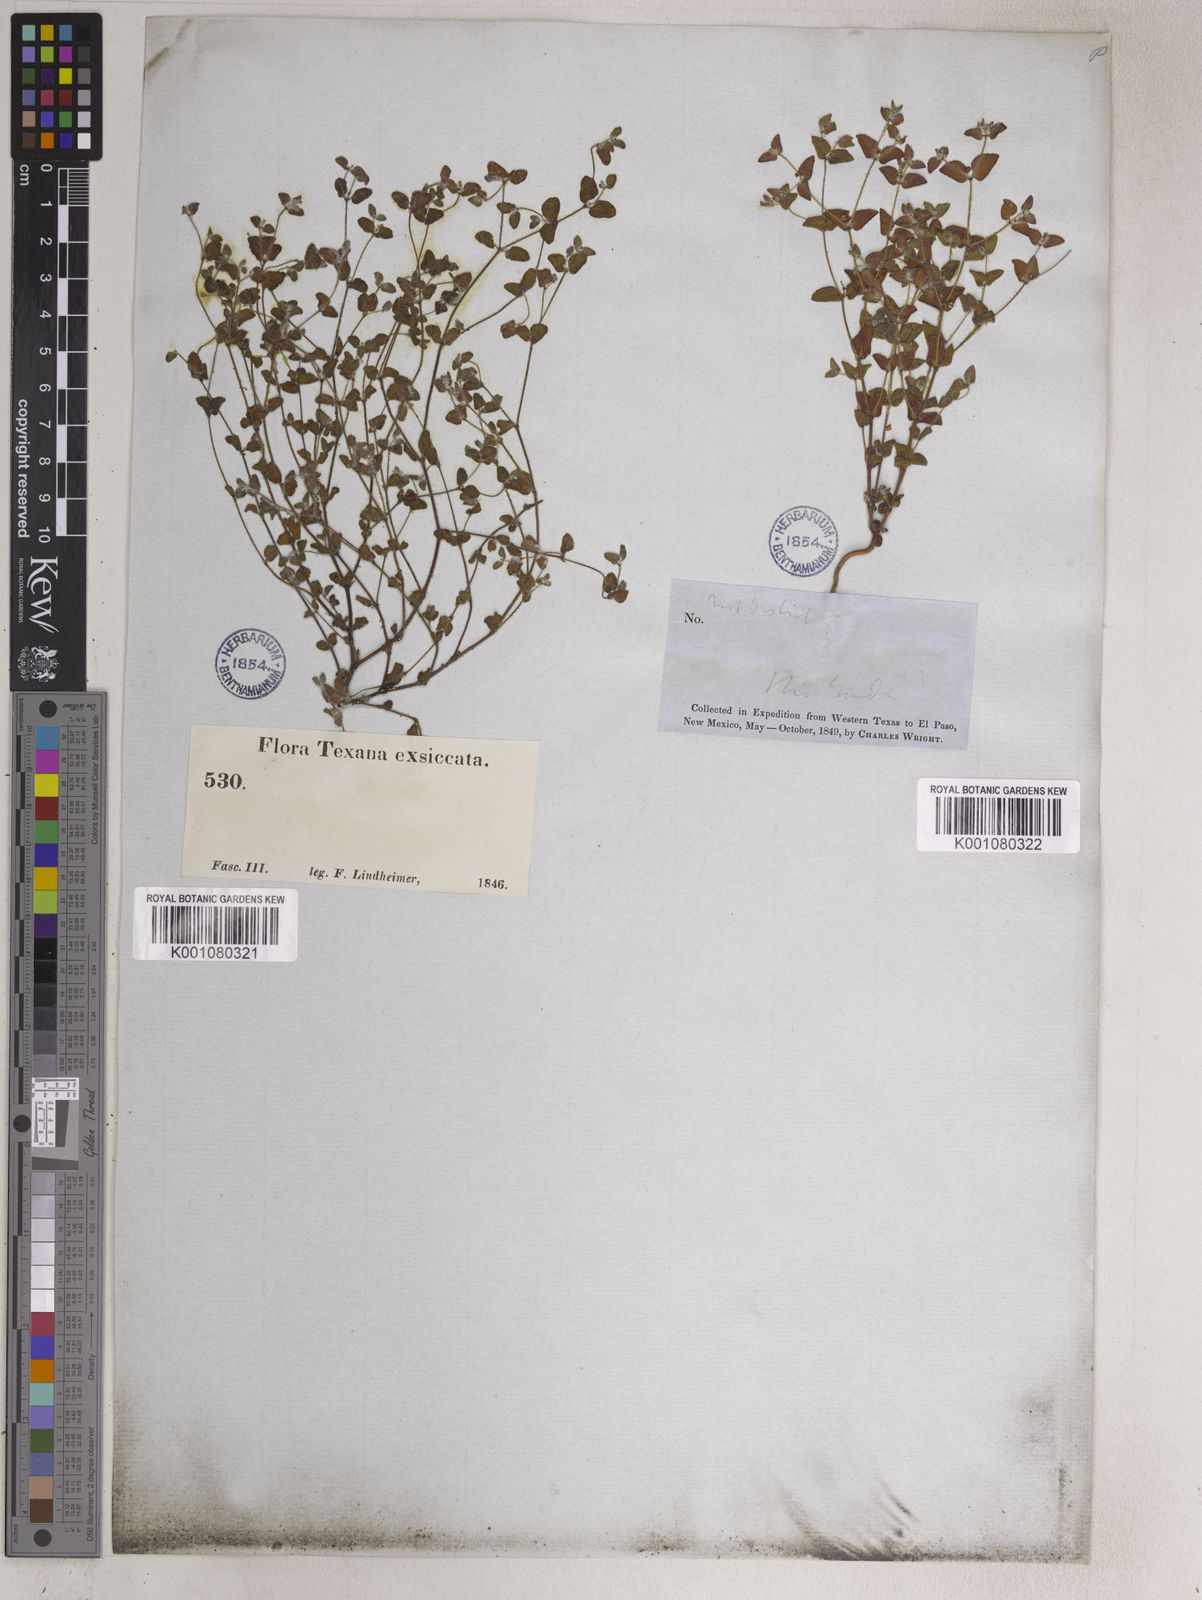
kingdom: Plantae
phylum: Tracheophyta
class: Magnoliopsida
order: Malpighiales
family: Euphorbiaceae
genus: Euphorbia
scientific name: Euphorbia villifera
